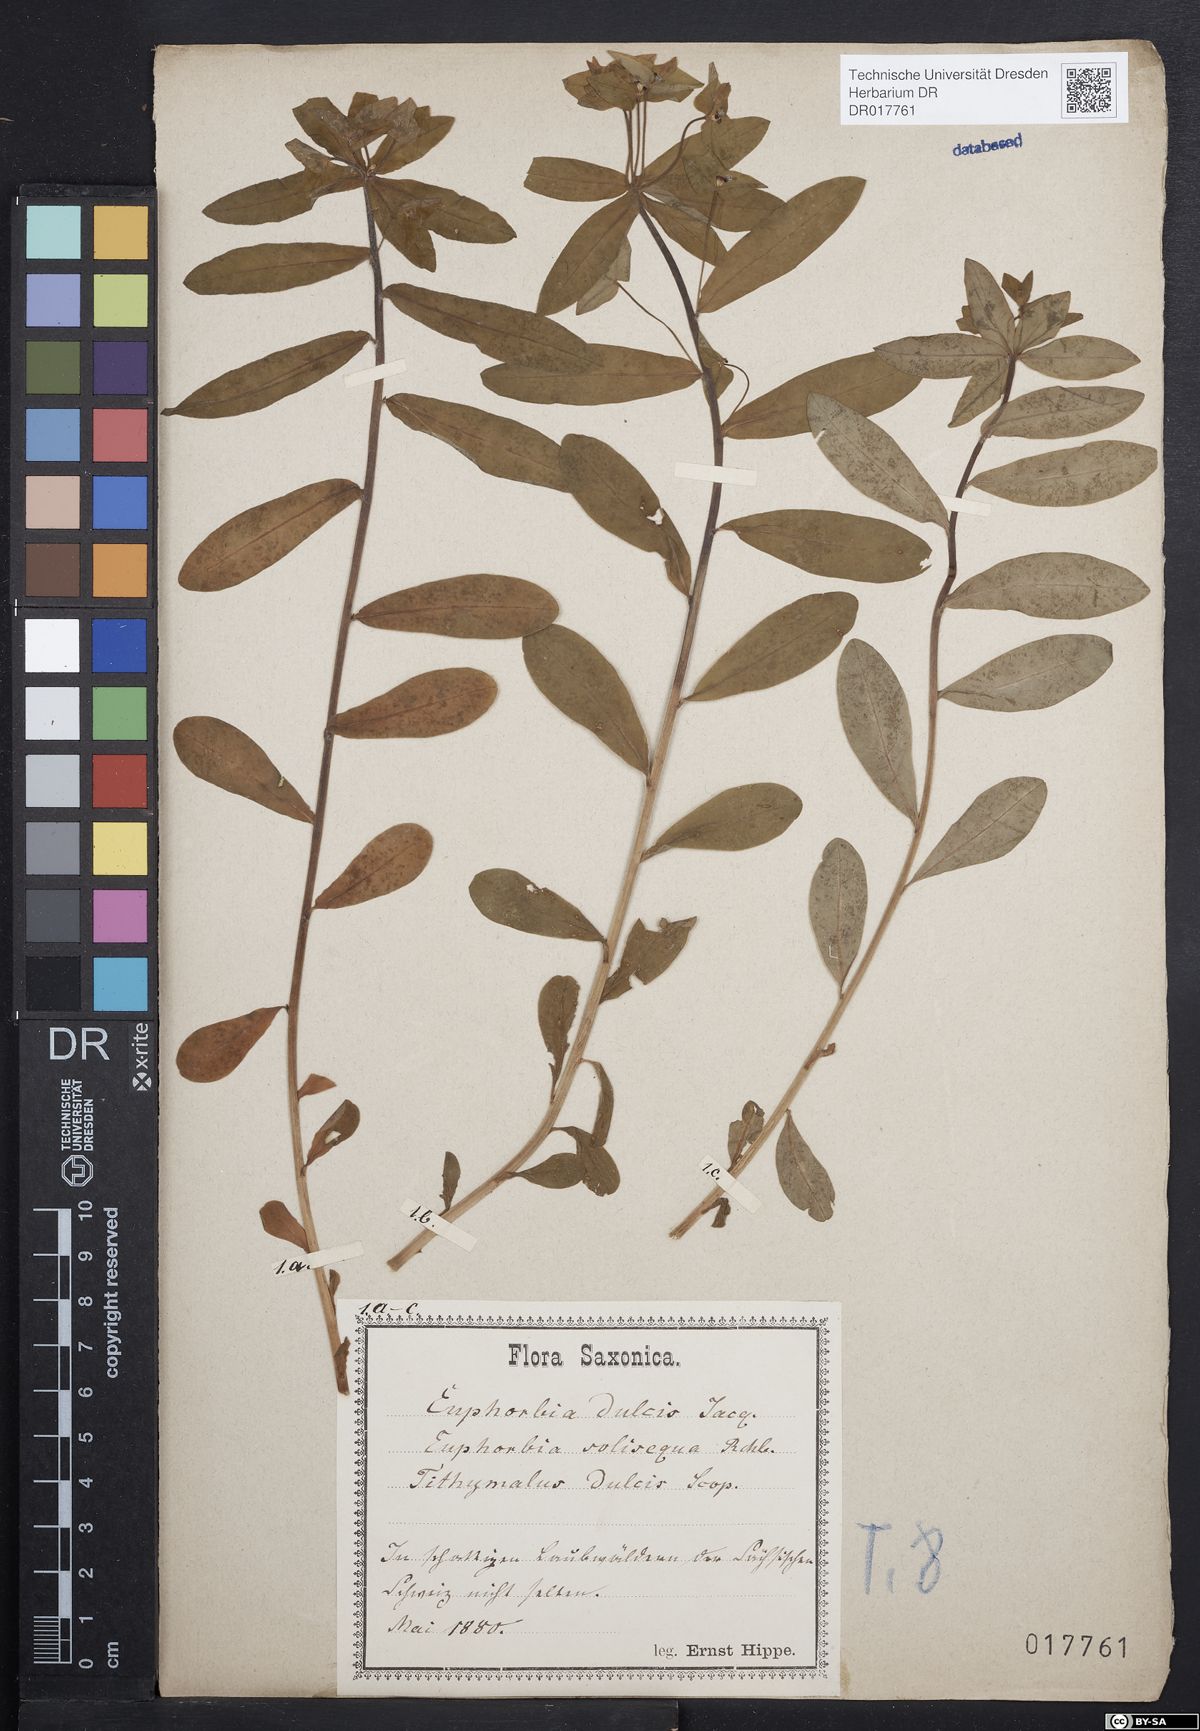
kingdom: Plantae
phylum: Tracheophyta
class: Magnoliopsida
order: Malpighiales
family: Euphorbiaceae
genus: Euphorbia
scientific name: Euphorbia dulcis
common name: Sweet spurge
